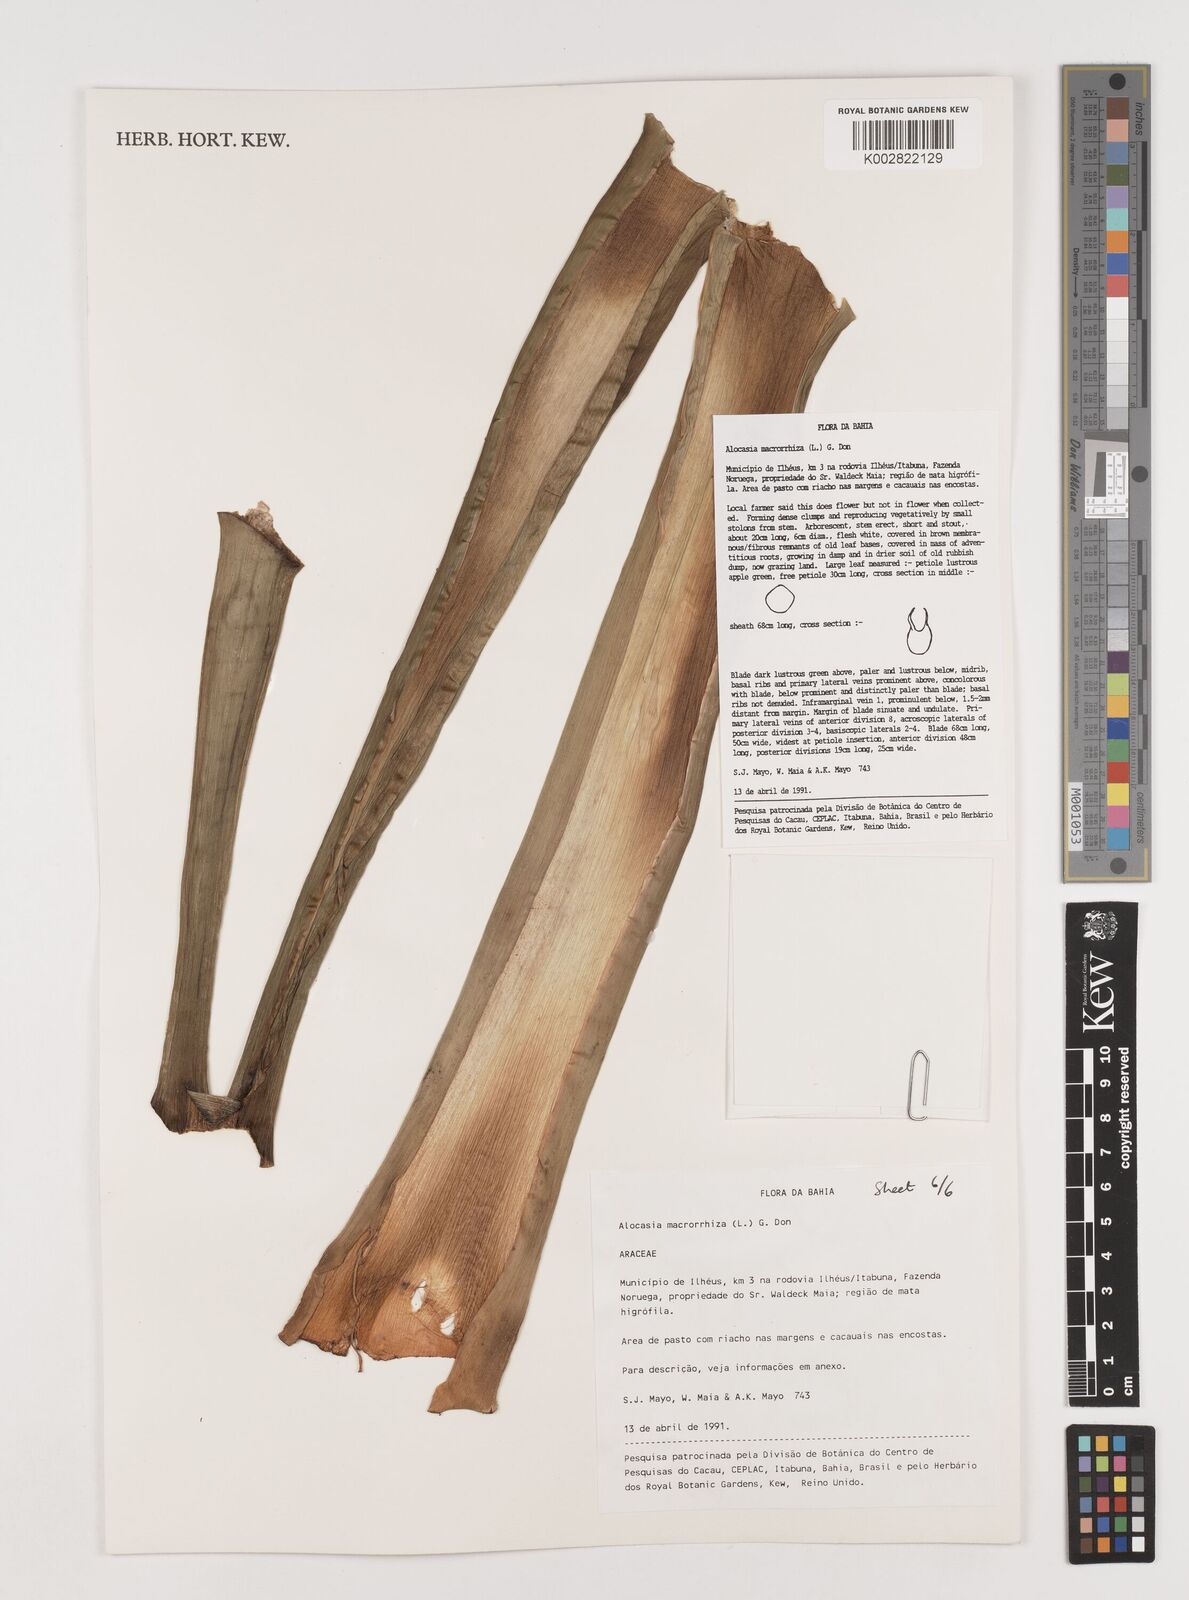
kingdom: Plantae
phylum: Tracheophyta
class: Liliopsida
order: Alismatales
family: Araceae
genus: Alocasia
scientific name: Alocasia macrorrhizos
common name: Giant taro
